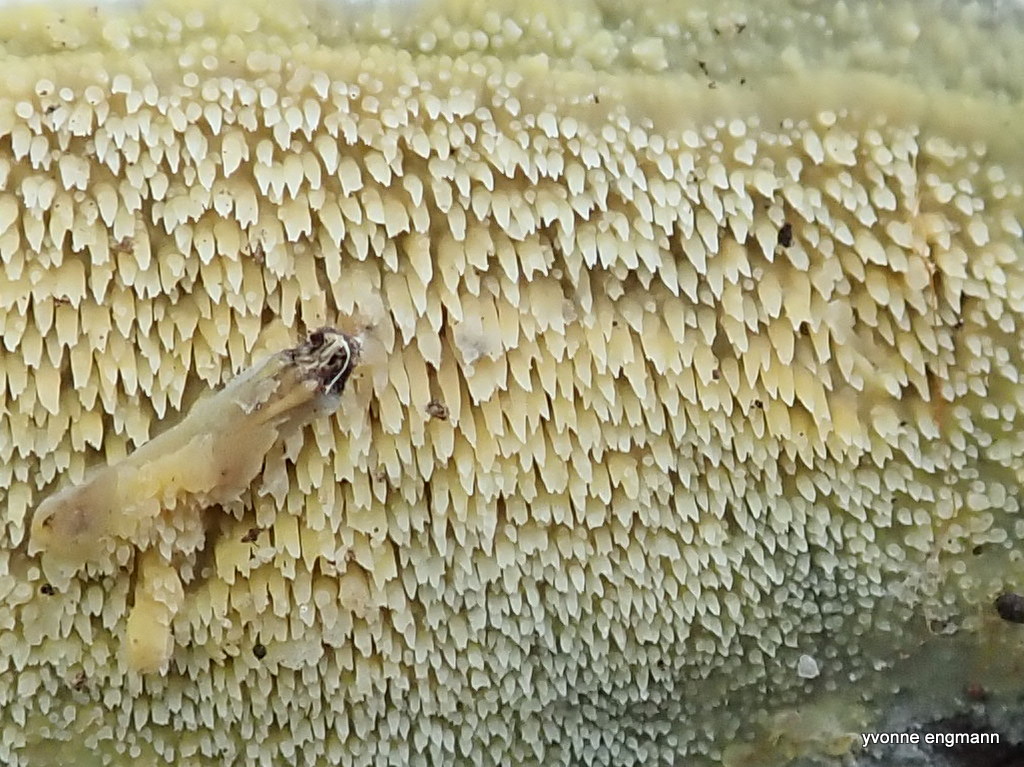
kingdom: Fungi
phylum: Basidiomycota
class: Agaricomycetes
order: Polyporales
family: Meruliaceae
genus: Mycoacia
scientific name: Mycoacia
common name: vokspig
